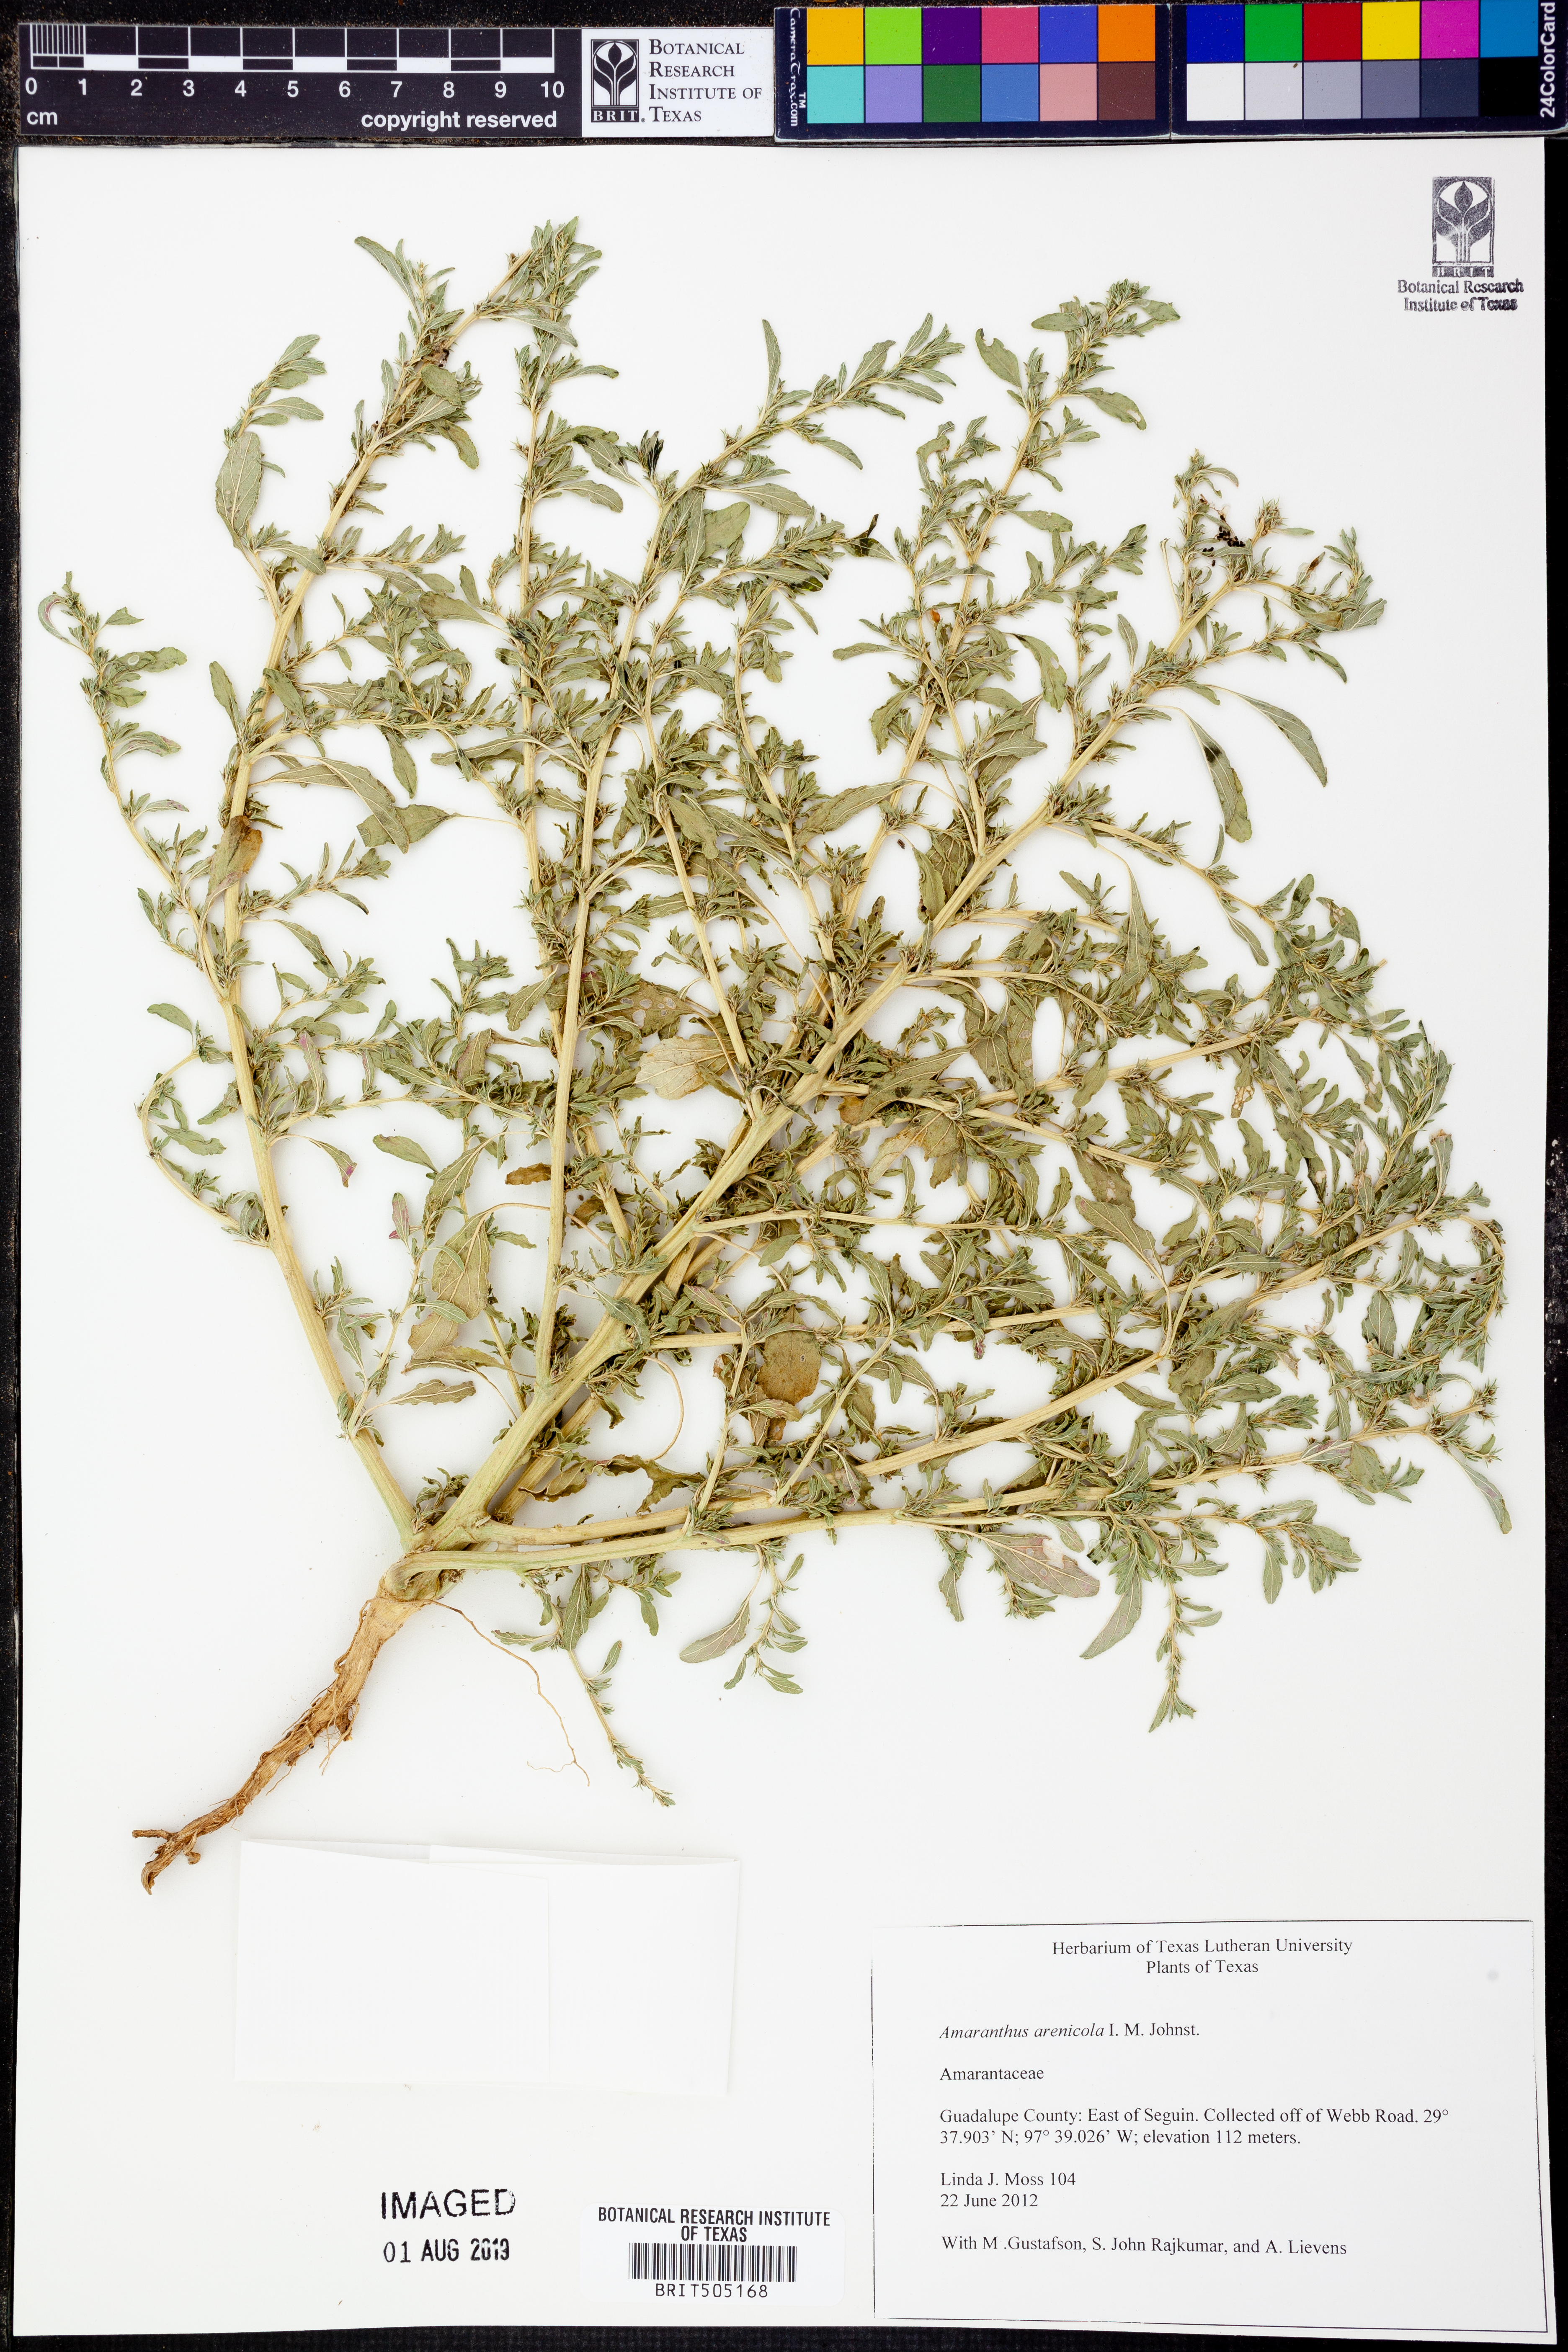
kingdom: Plantae
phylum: Tracheophyta
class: Magnoliopsida
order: Caryophyllales
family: Amaranthaceae
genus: Amaranthus
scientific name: Amaranthus arenicola
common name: Sandhills amaranth
